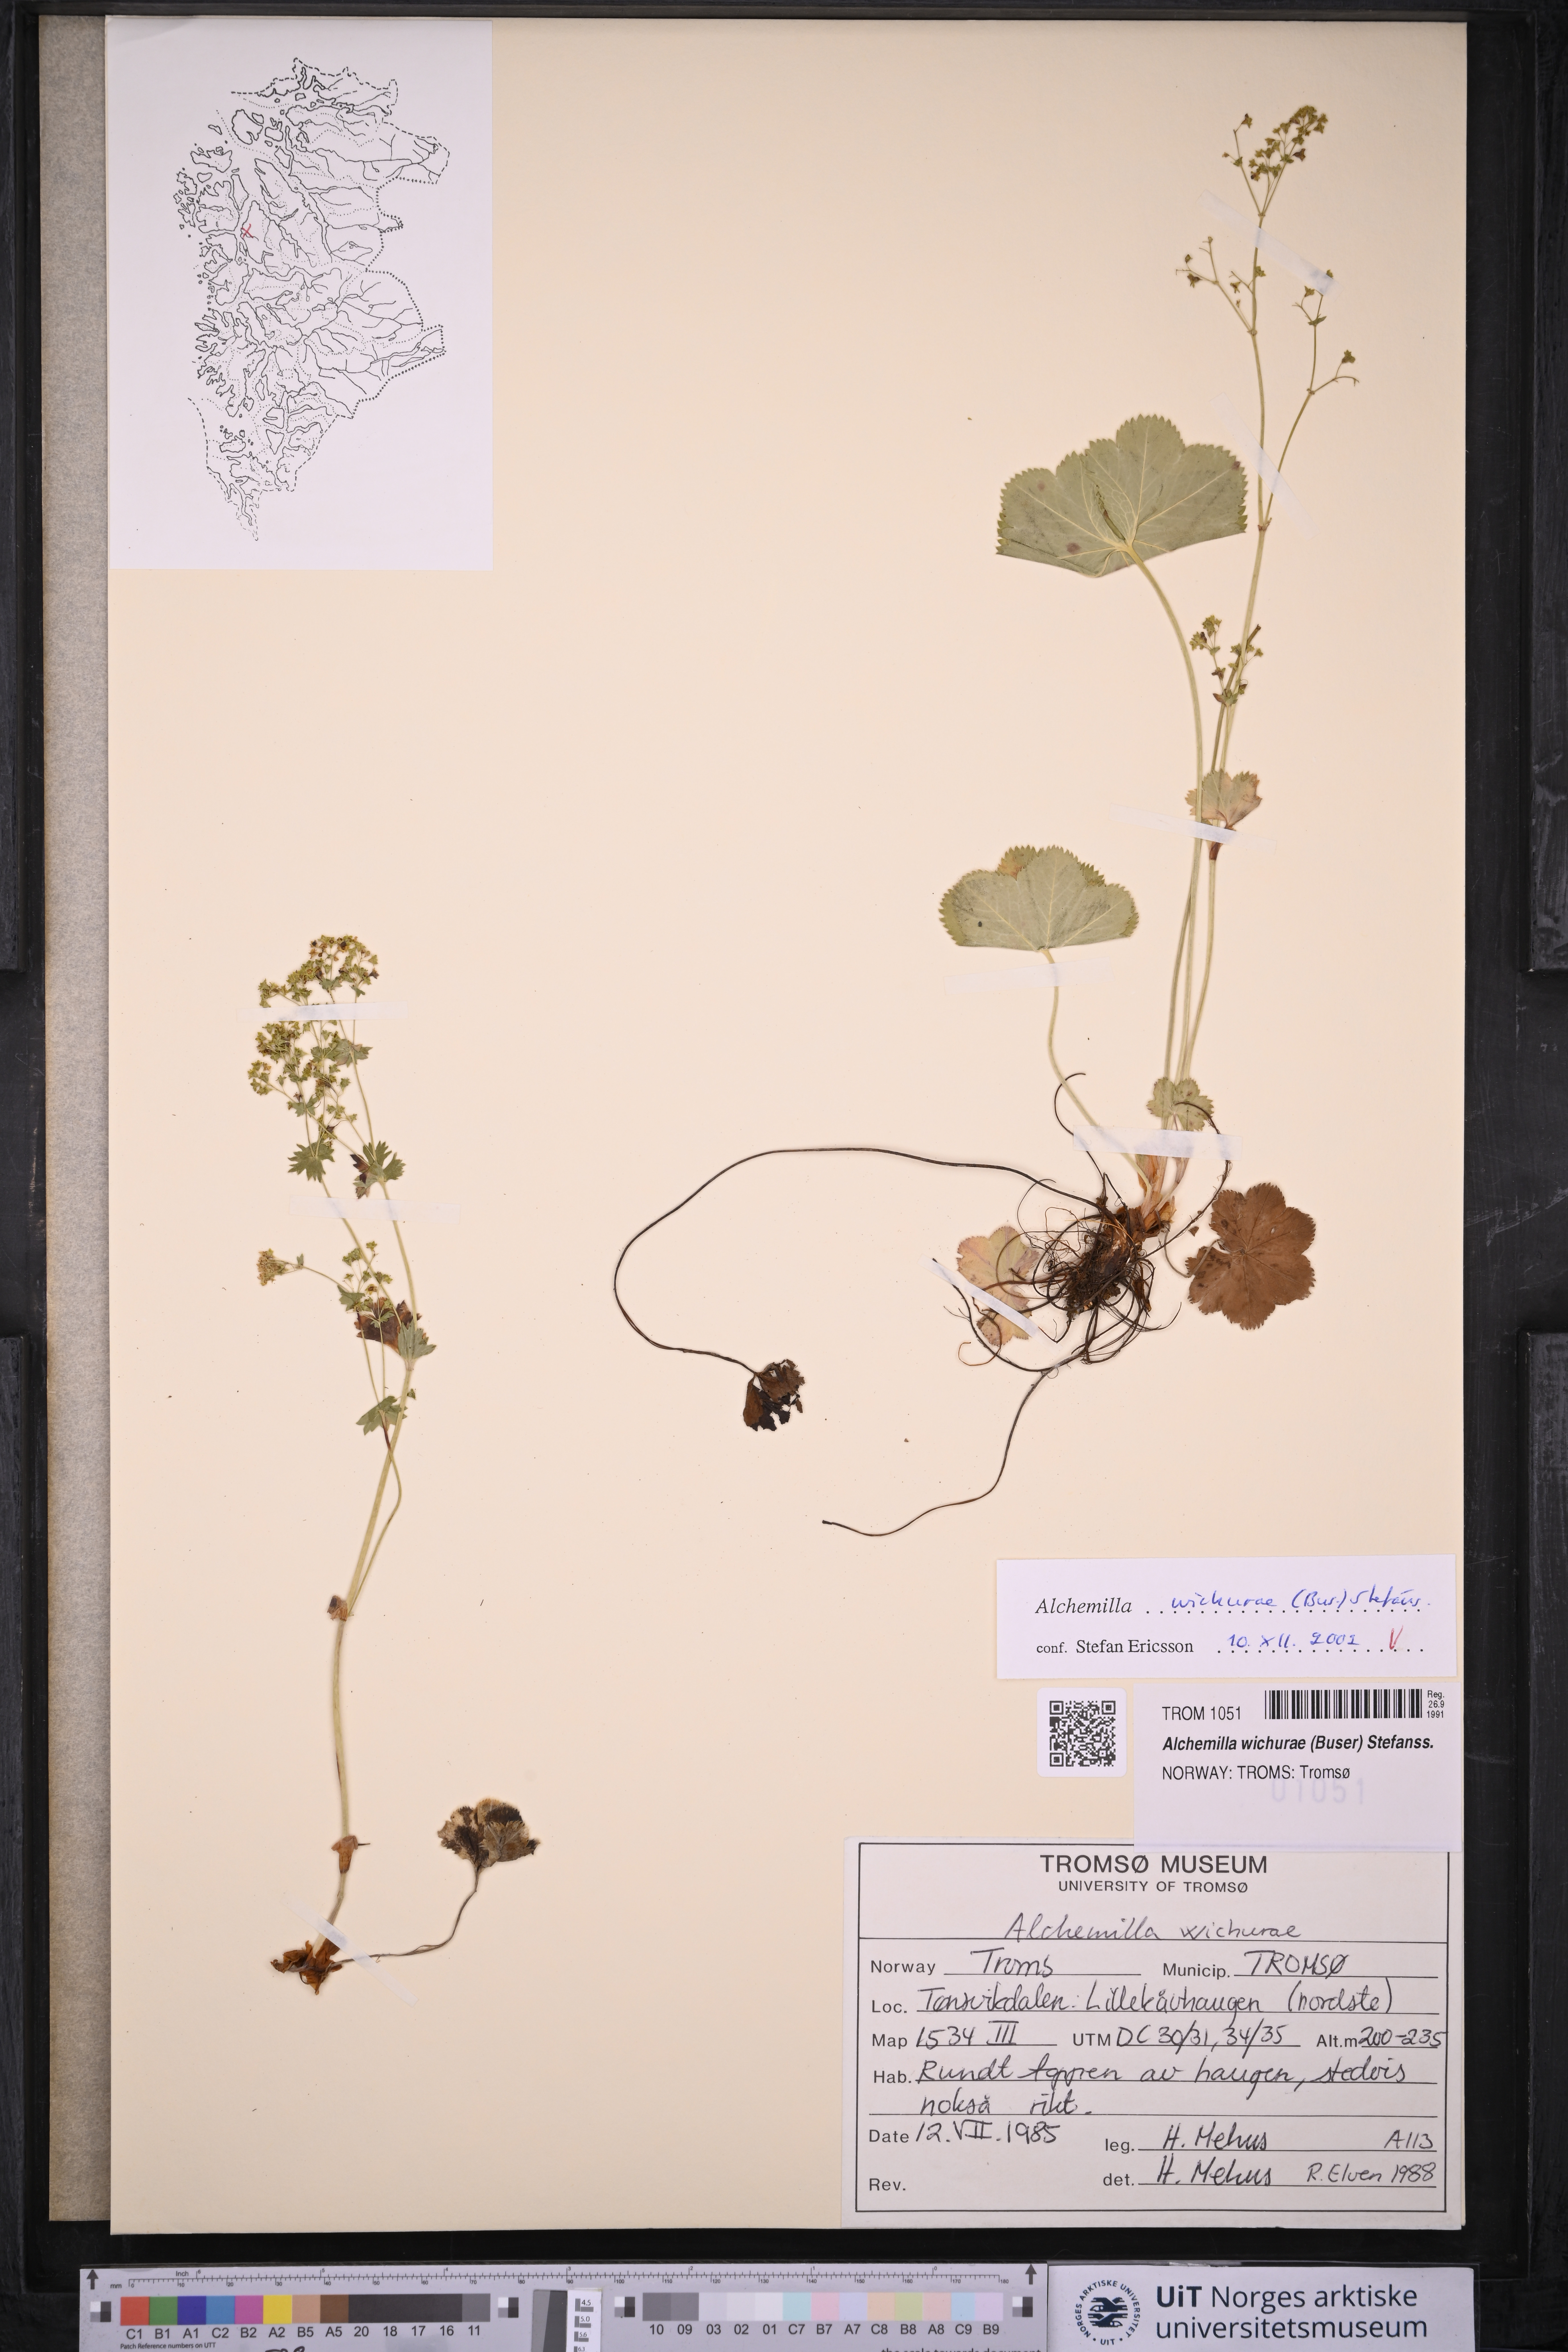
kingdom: Plantae
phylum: Tracheophyta
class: Magnoliopsida
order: Rosales
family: Rosaceae
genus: Alchemilla
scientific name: Alchemilla wichurae
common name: Rock lady's mantle
